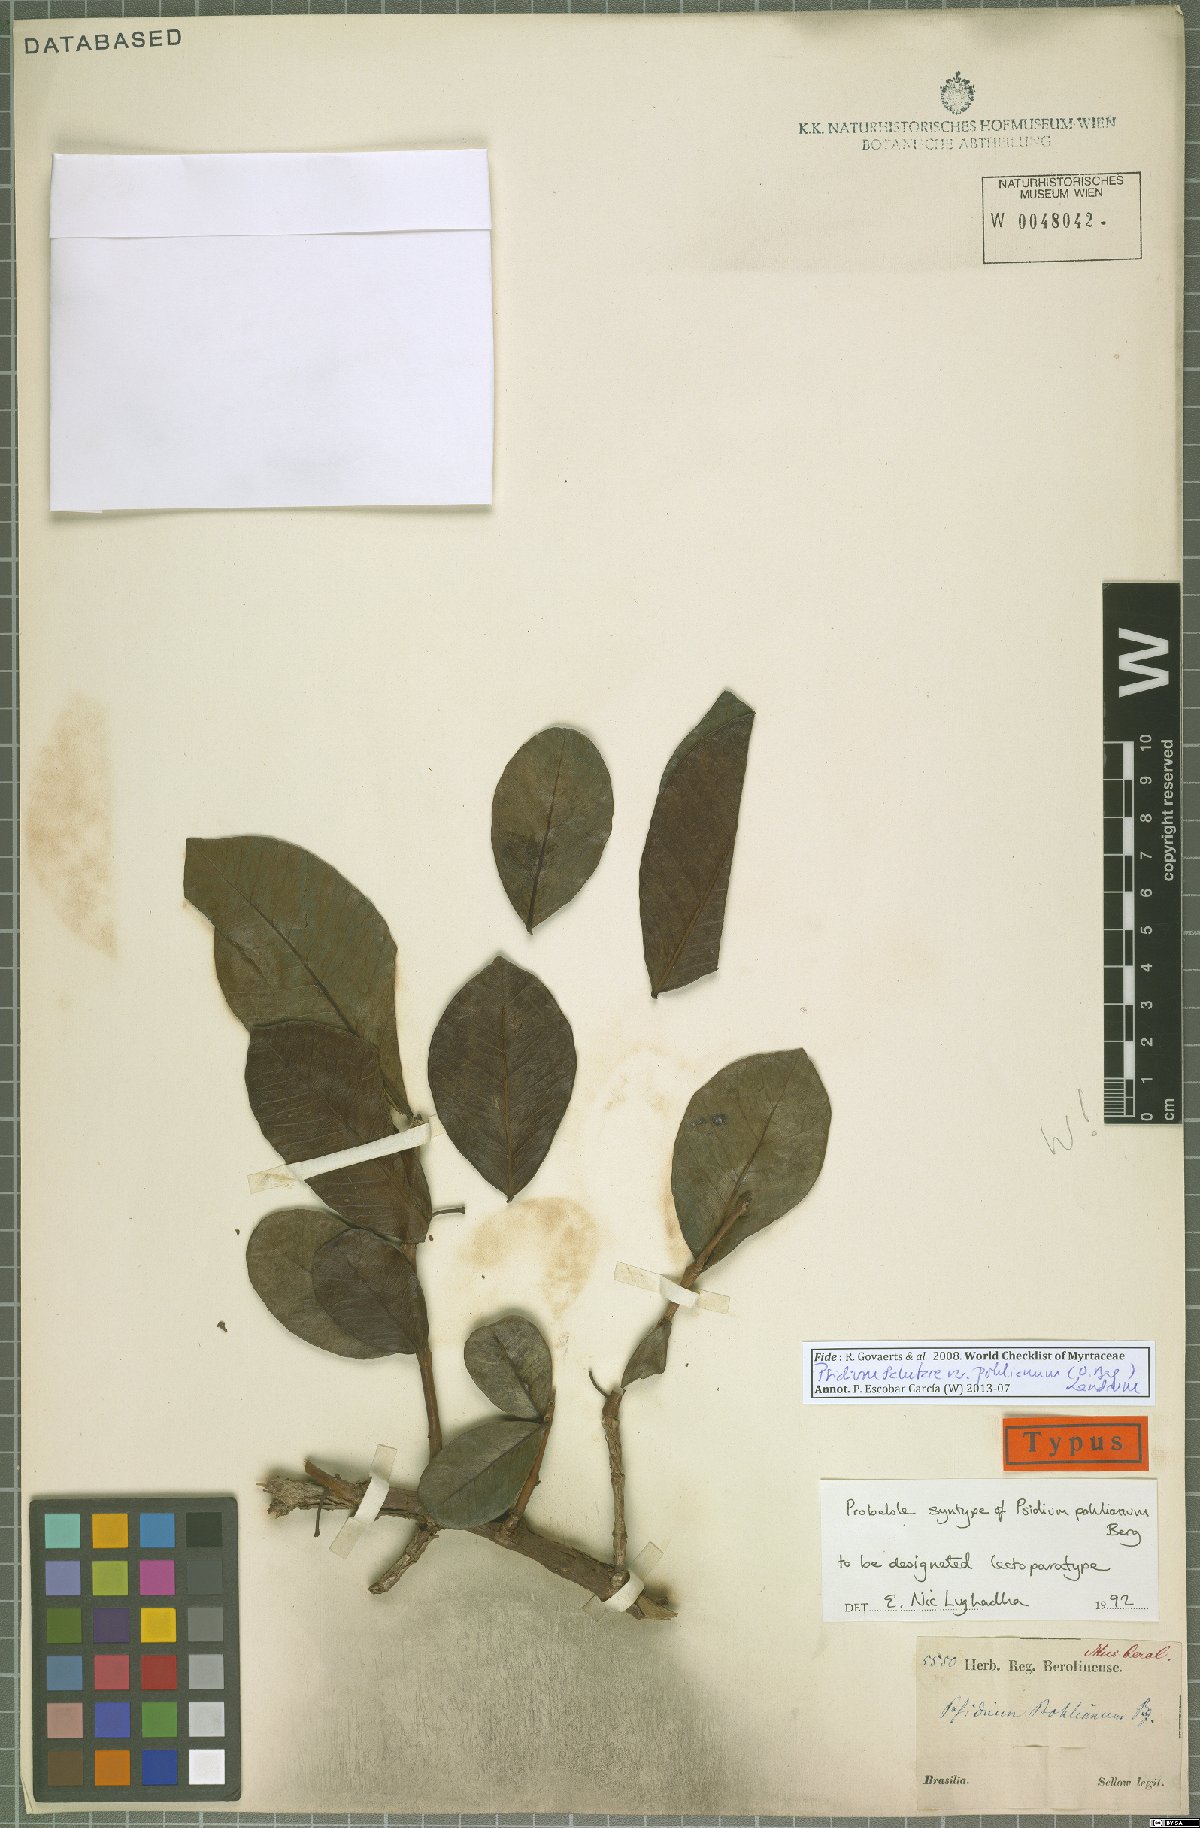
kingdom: Plantae
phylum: Tracheophyta
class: Magnoliopsida
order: Myrtales
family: Myrtaceae
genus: Psidium
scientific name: Psidium salutare
